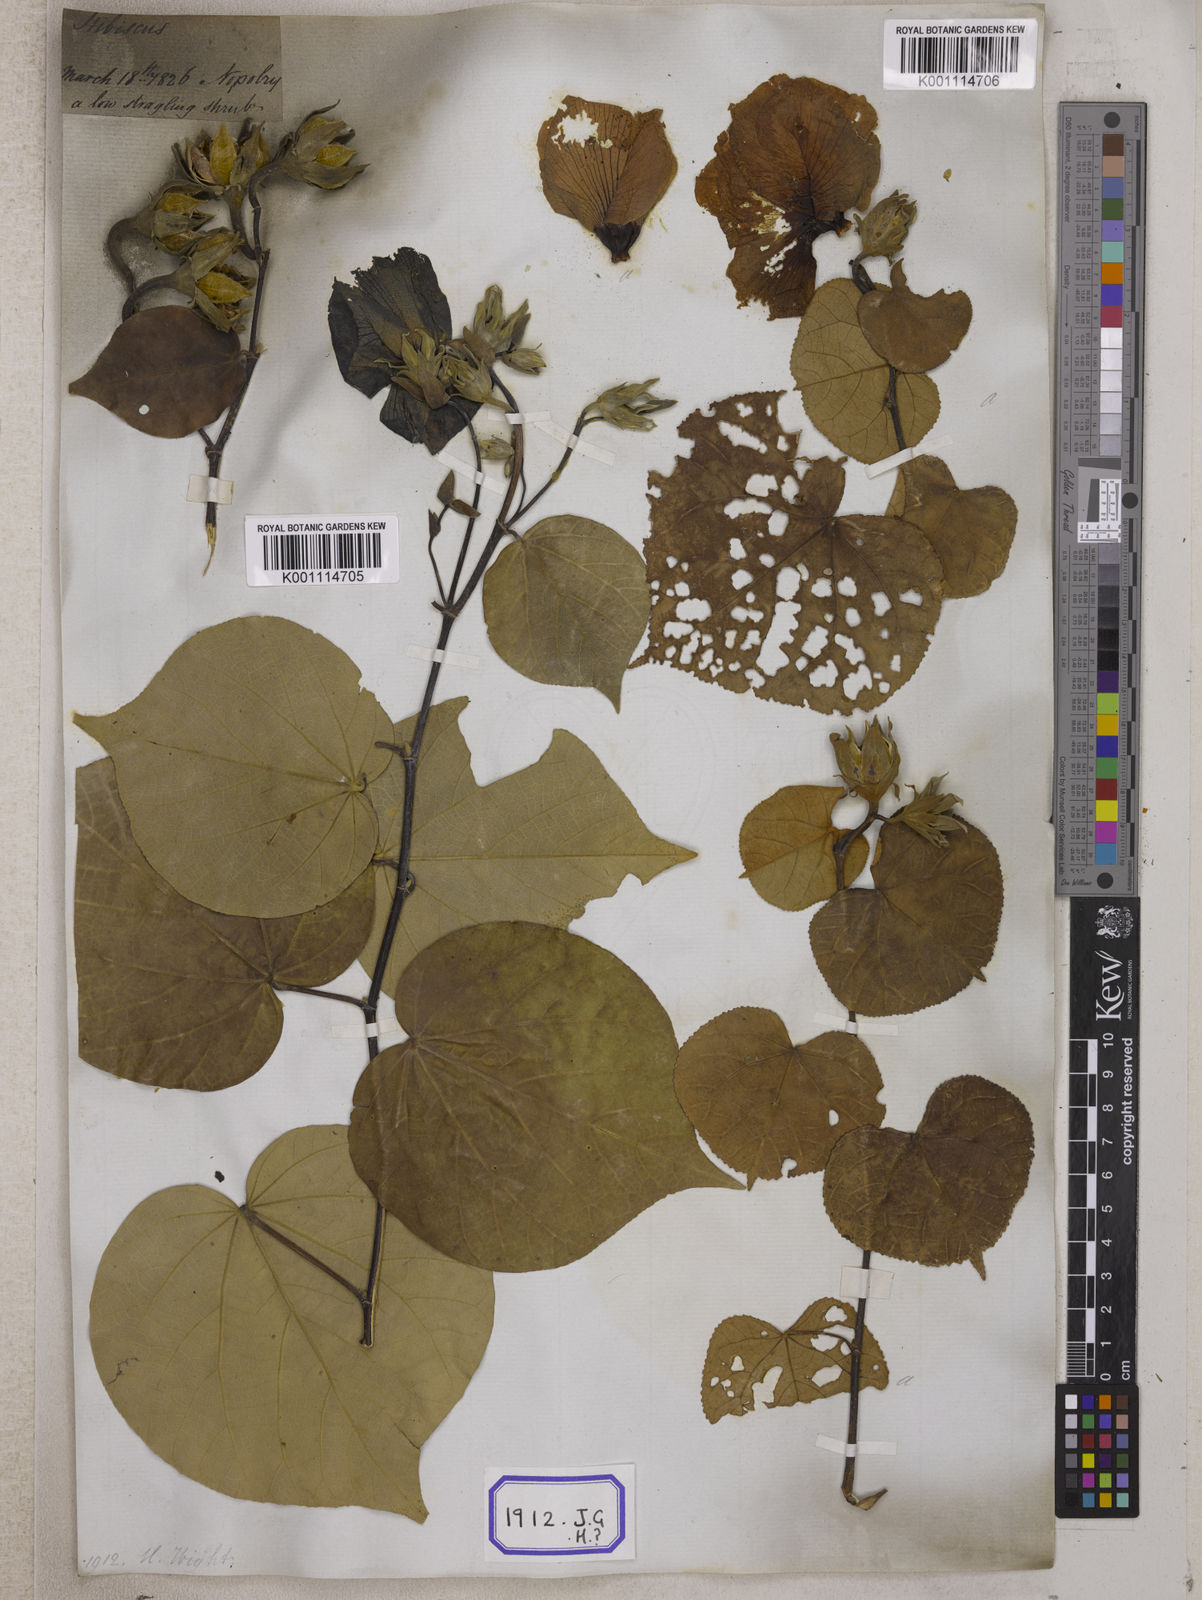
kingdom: Plantae
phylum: Tracheophyta
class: Magnoliopsida
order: Malvales
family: Malvaceae
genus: Talipariti
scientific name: Talipariti tiliaceum
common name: Sea hibiscus
